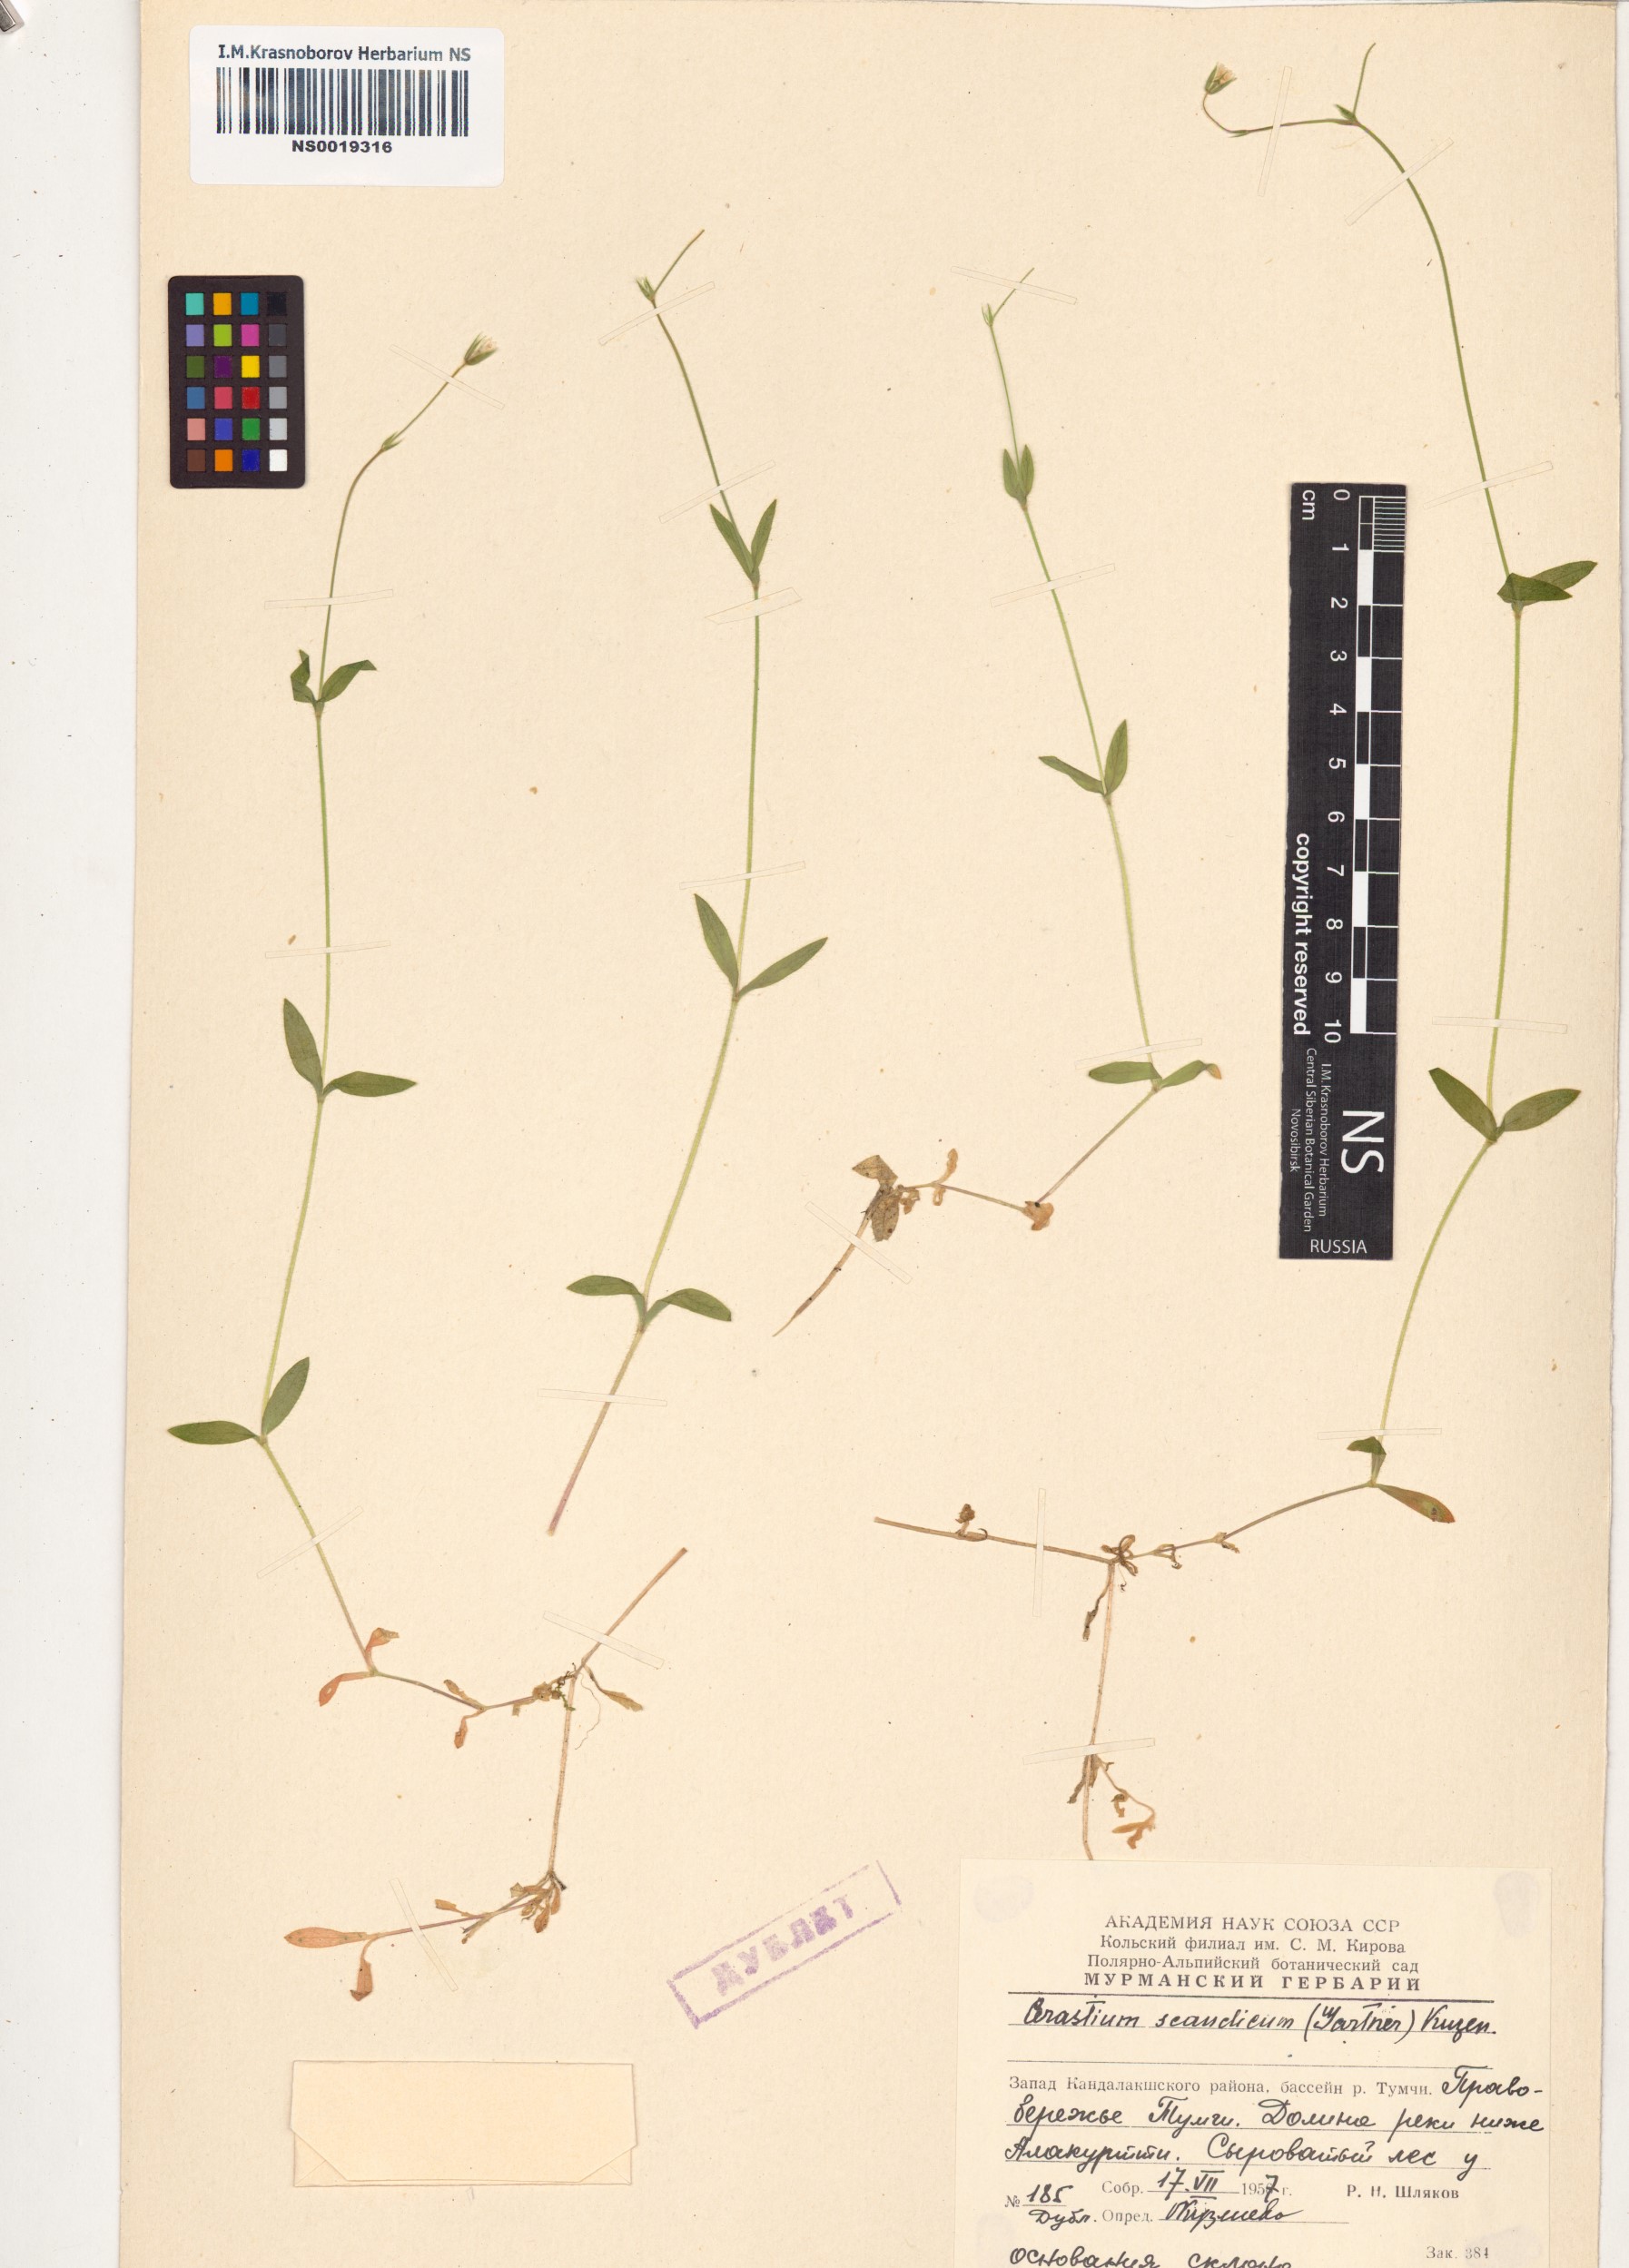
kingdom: Plantae
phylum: Tracheophyta
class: Magnoliopsida
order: Caryophyllales
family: Caryophyllaceae
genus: Cerastium
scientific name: Cerastium holosteoides
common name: Big chickweed
